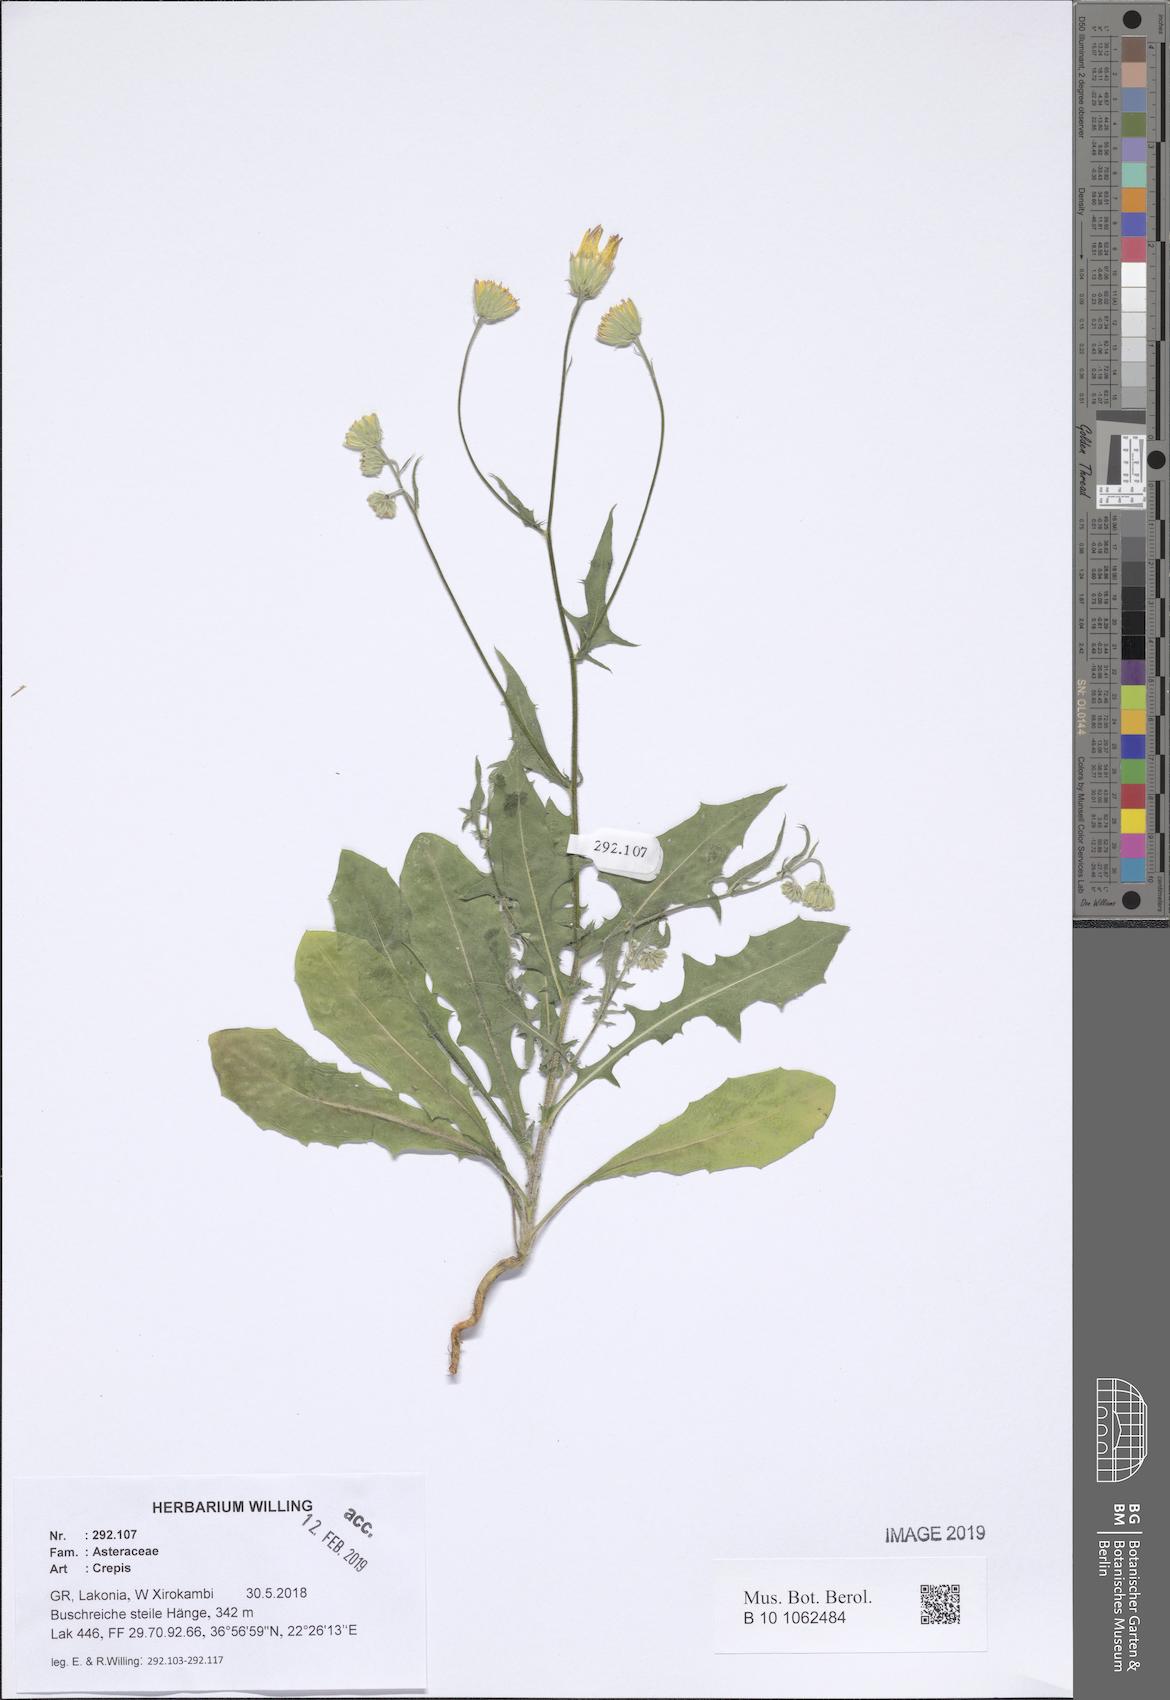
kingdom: Plantae
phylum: Tracheophyta
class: Magnoliopsida
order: Asterales
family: Asteraceae
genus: Crepis
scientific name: Crepis
